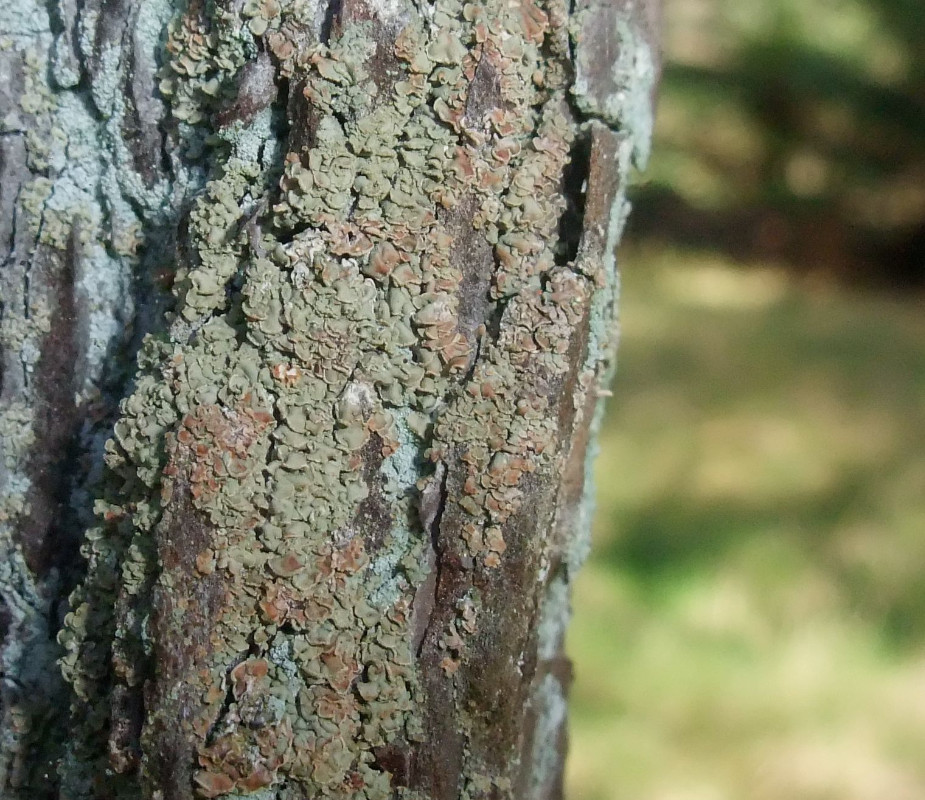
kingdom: Fungi
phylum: Ascomycota
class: Lecanoromycetes
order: Umbilicariales
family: Ophioparmaceae
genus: Hypocenomyce
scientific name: Hypocenomyce scalaris
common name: småskællet muslinglav
